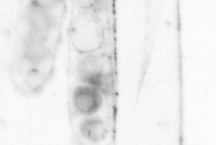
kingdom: Animalia
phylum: Chordata
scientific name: Chordata
